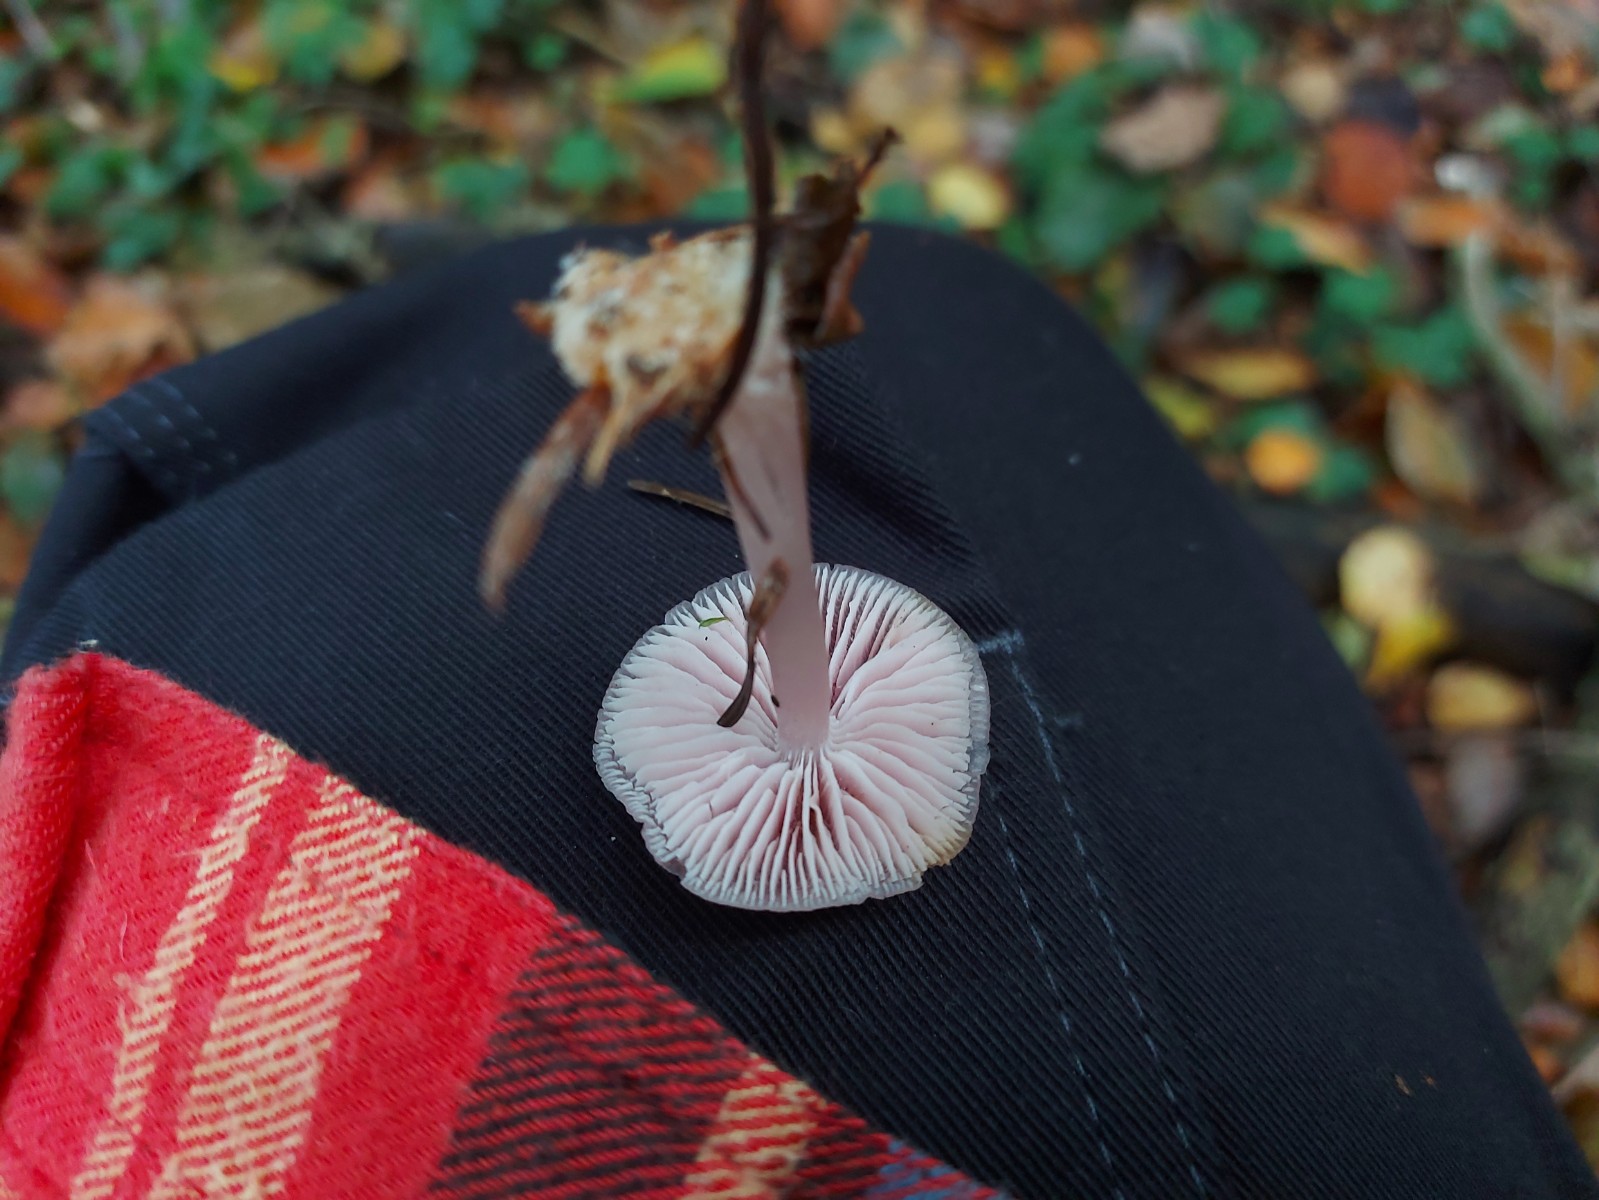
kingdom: Fungi
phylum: Basidiomycota
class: Agaricomycetes
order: Agaricales
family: Mycenaceae
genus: Mycena
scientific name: Mycena rosea
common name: rosa huesvamp
